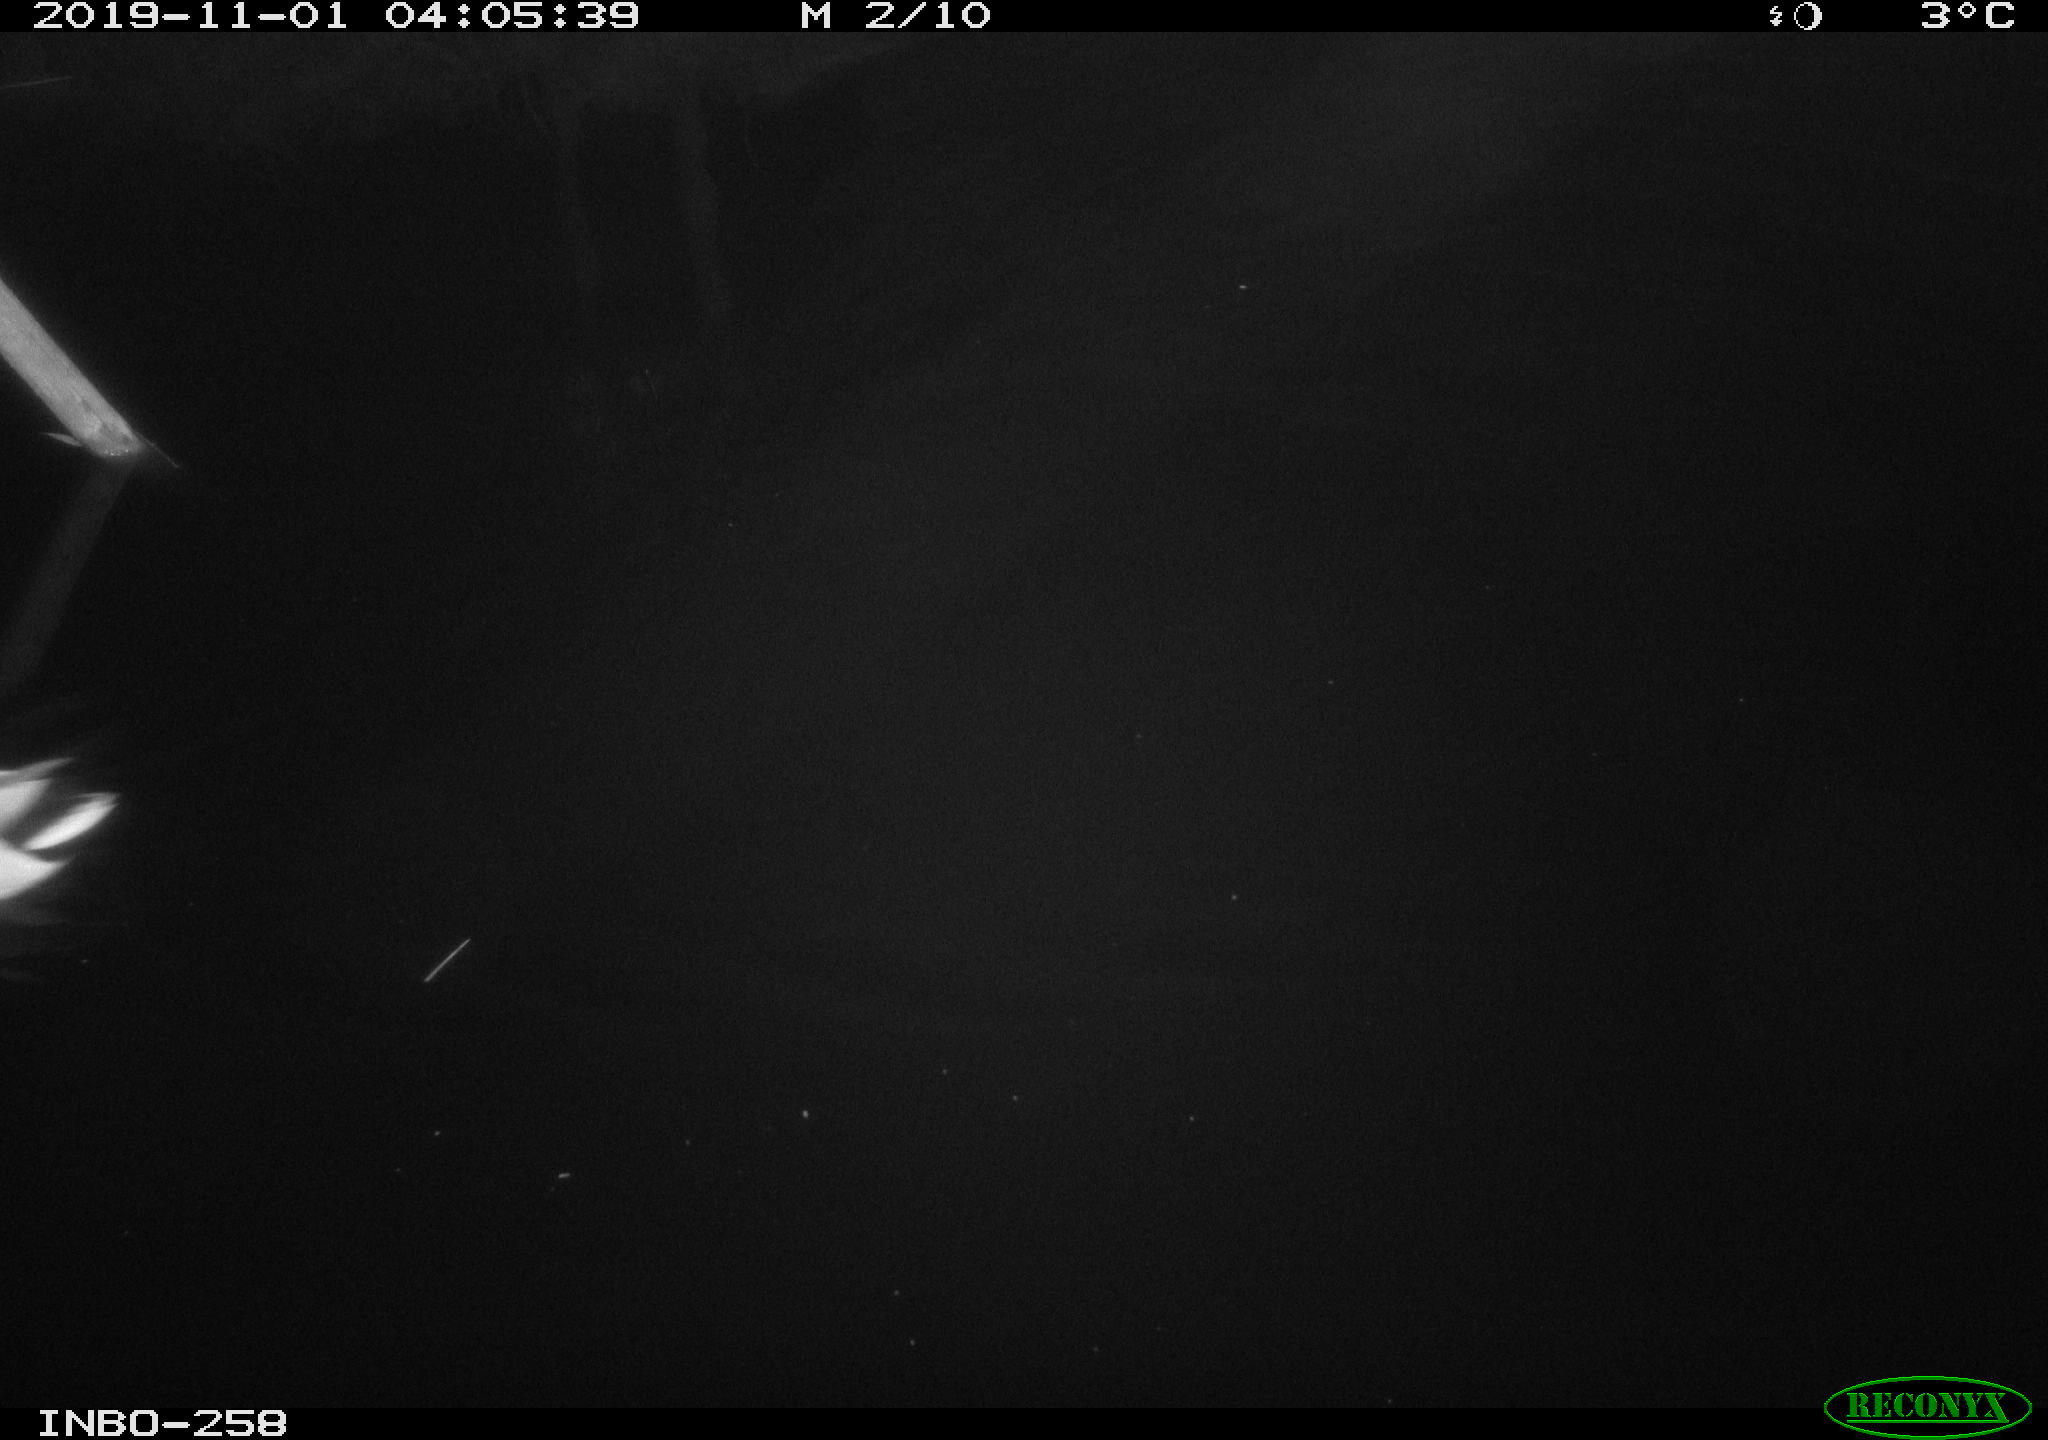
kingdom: Animalia
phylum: Chordata
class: Aves
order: Anseriformes
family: Anatidae
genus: Anas
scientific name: Anas platyrhynchos
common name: Mallard
